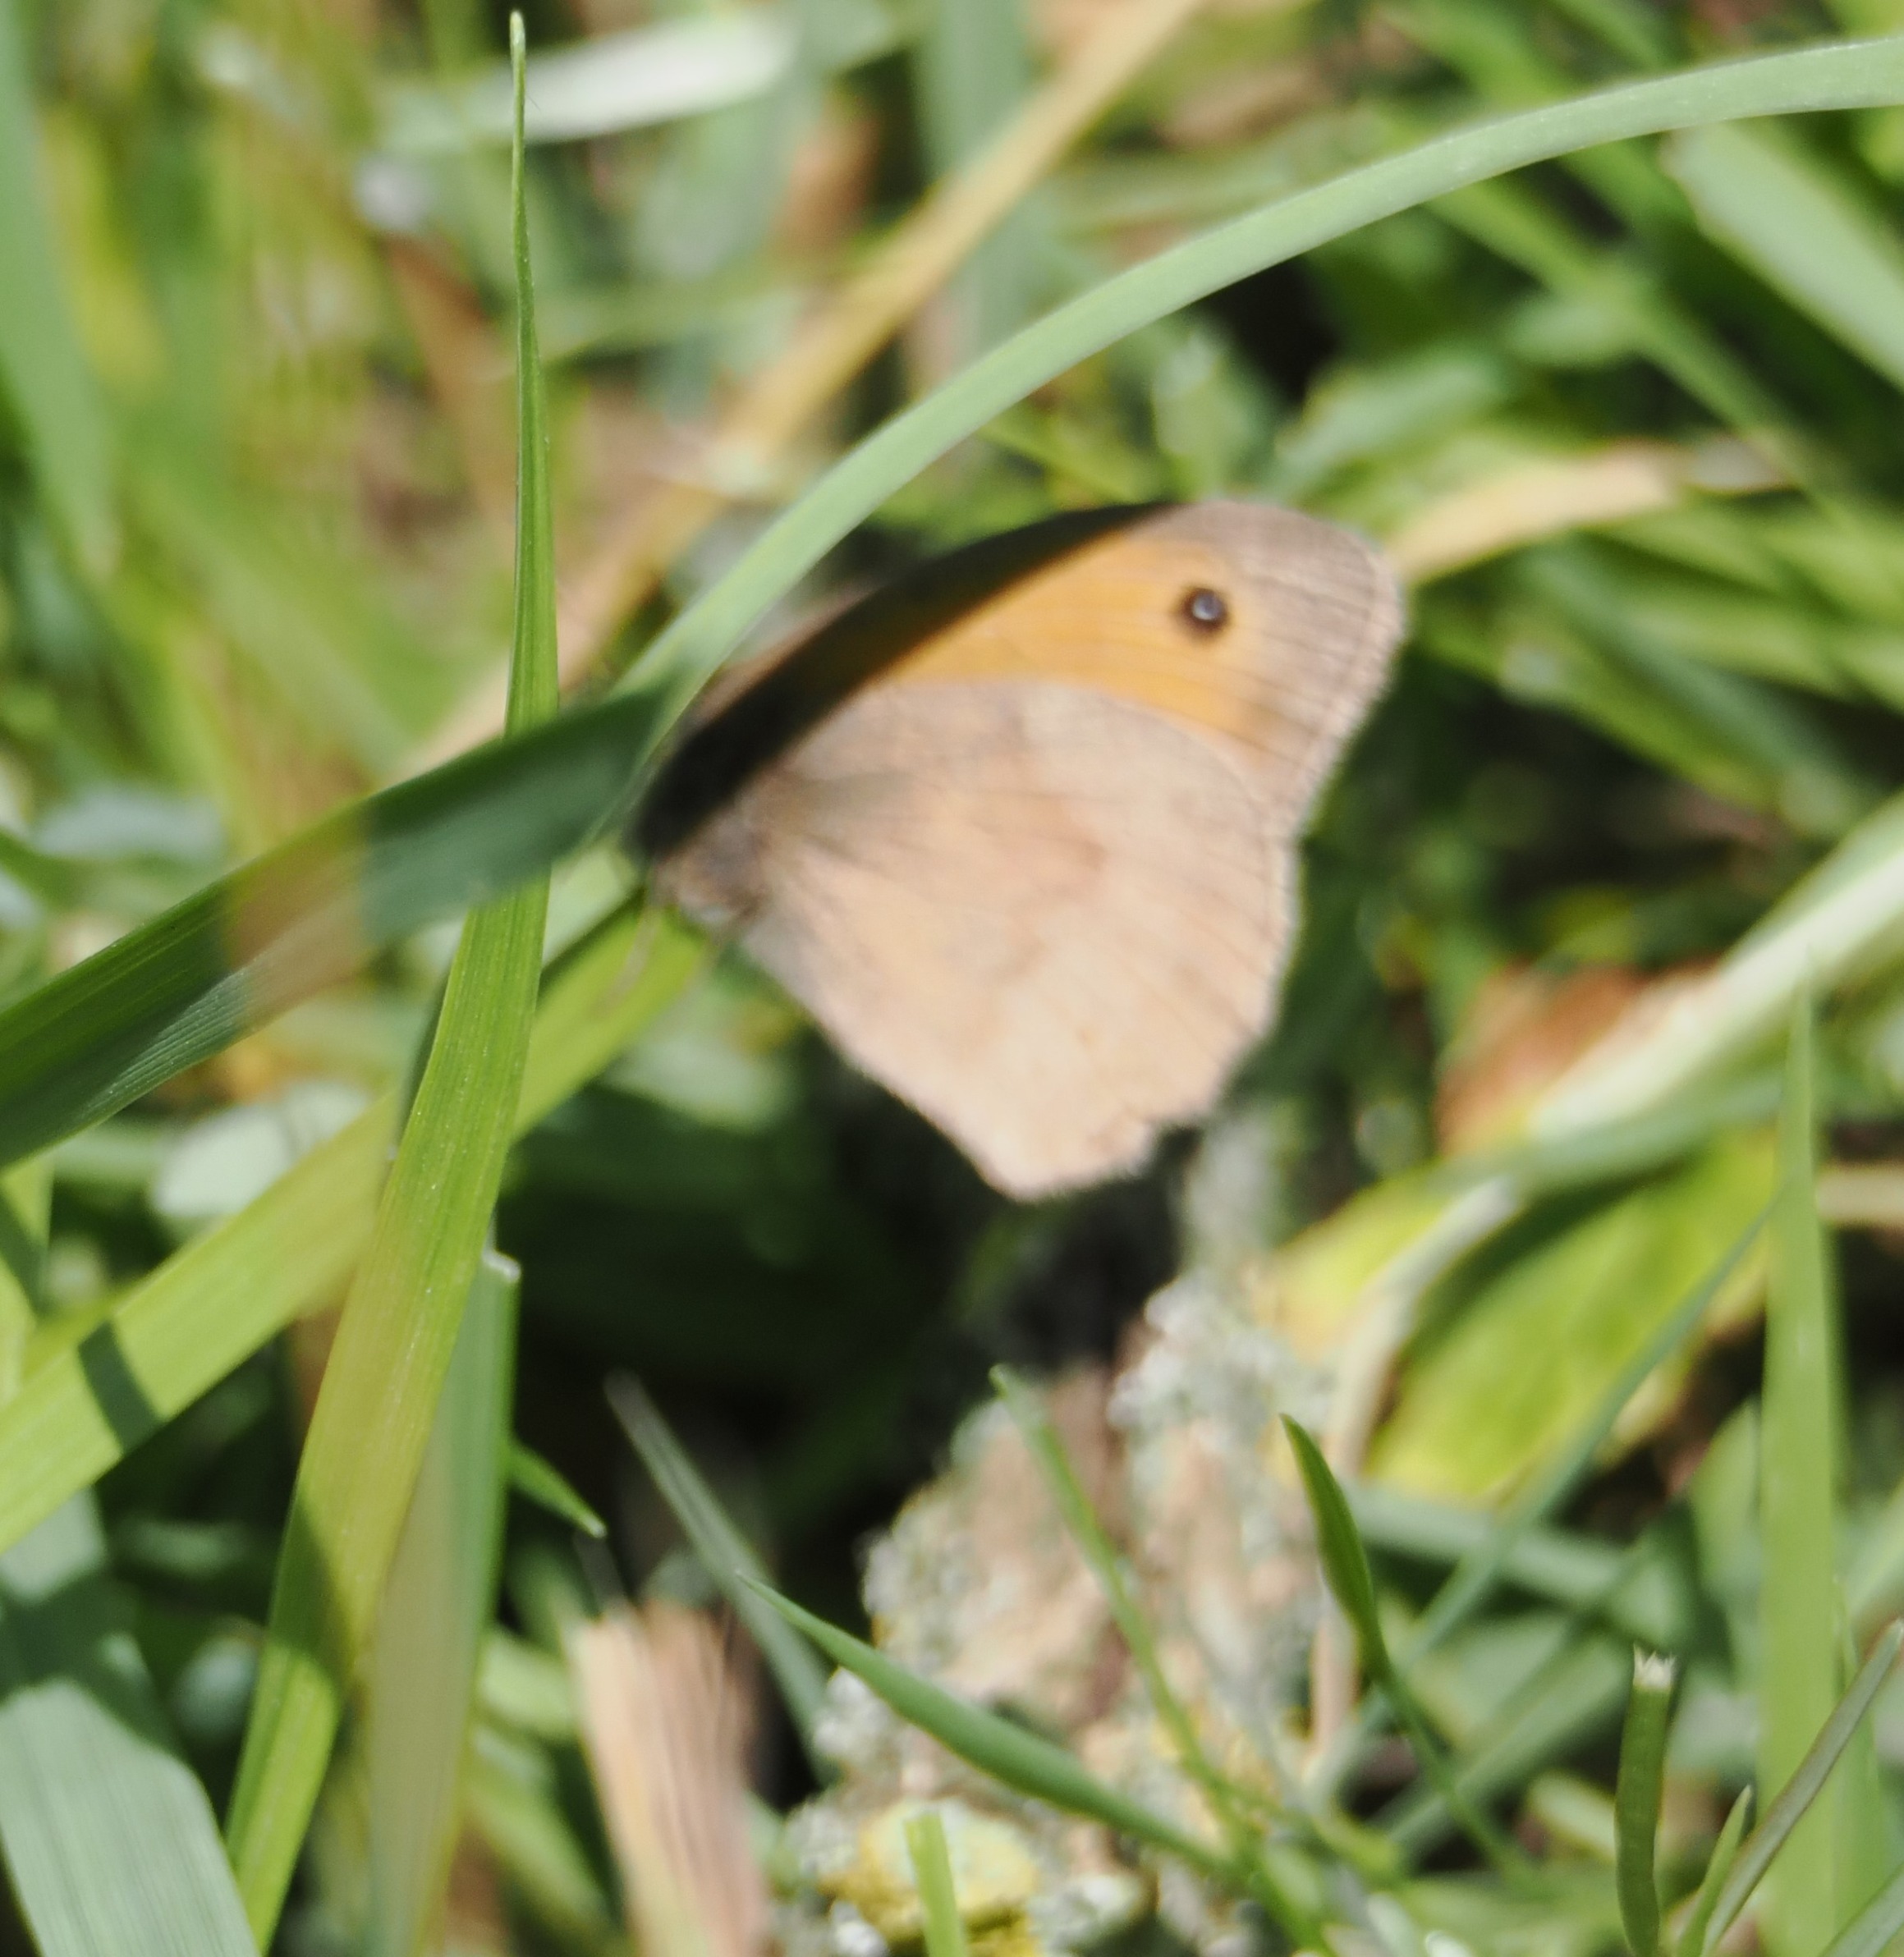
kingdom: Animalia
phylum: Arthropoda
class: Insecta
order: Lepidoptera
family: Nymphalidae
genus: Maniola
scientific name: Maniola jurtina
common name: Græsrandøje
